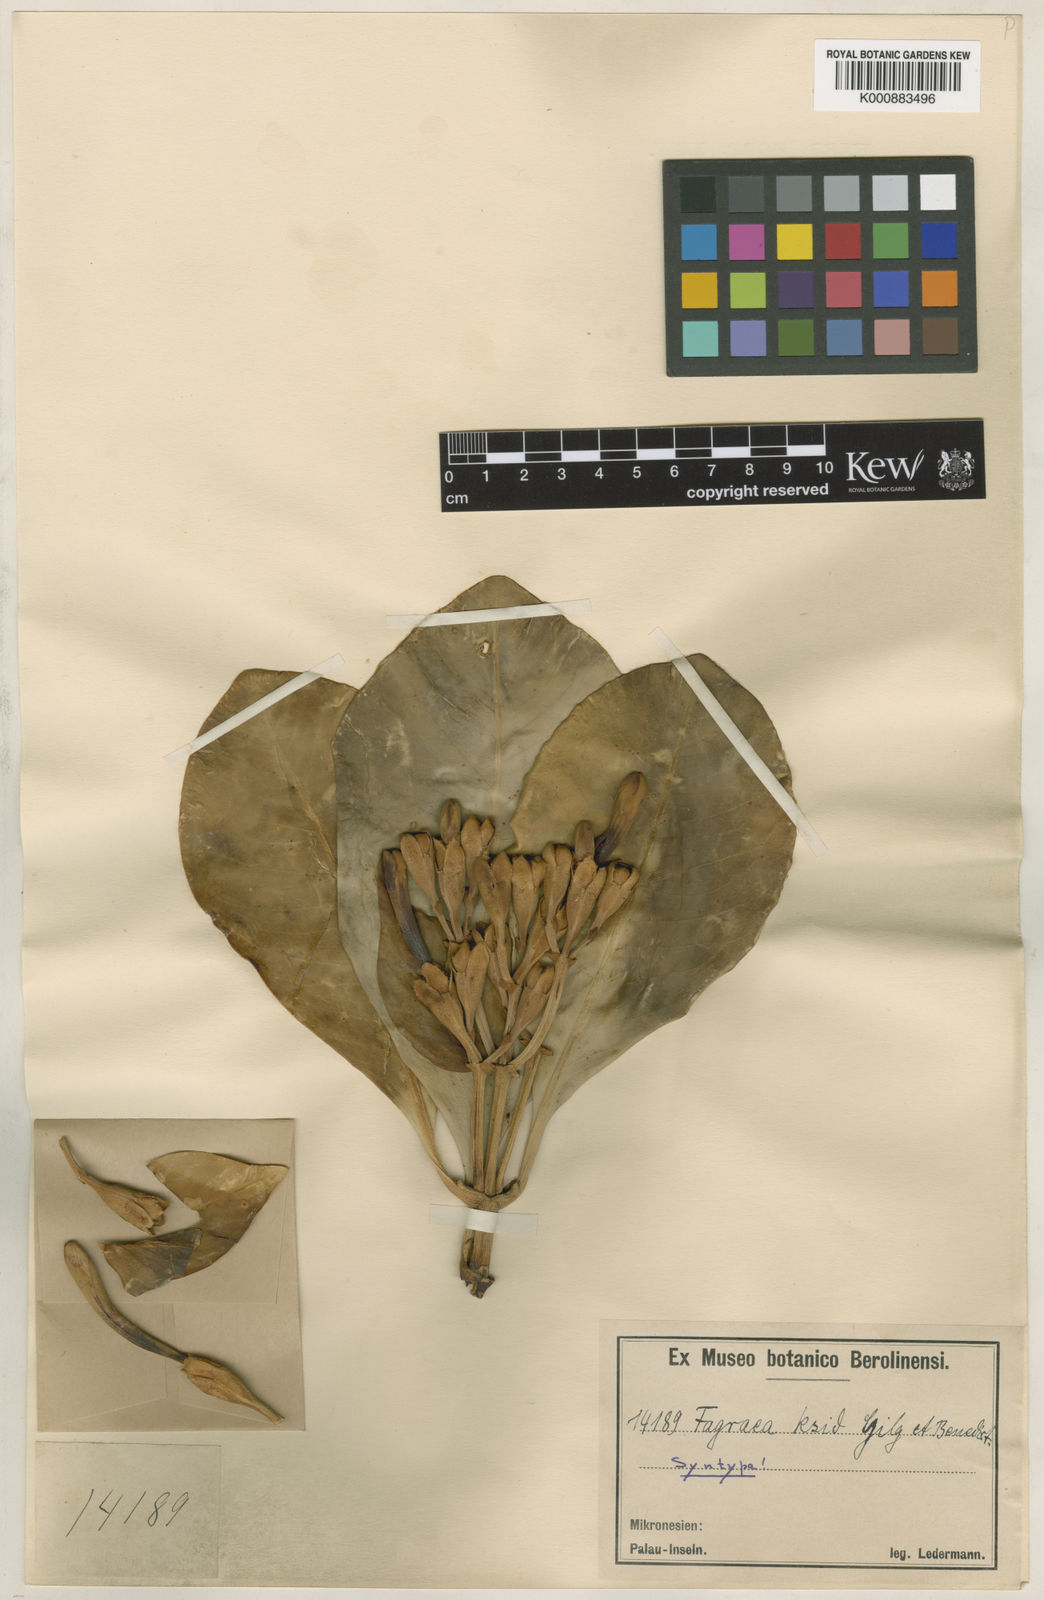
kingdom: Plantae
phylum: Tracheophyta
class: Magnoliopsida
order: Gentianales
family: Gentianaceae
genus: Fagraea
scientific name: Fagraea berteroana
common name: Cape jitta
